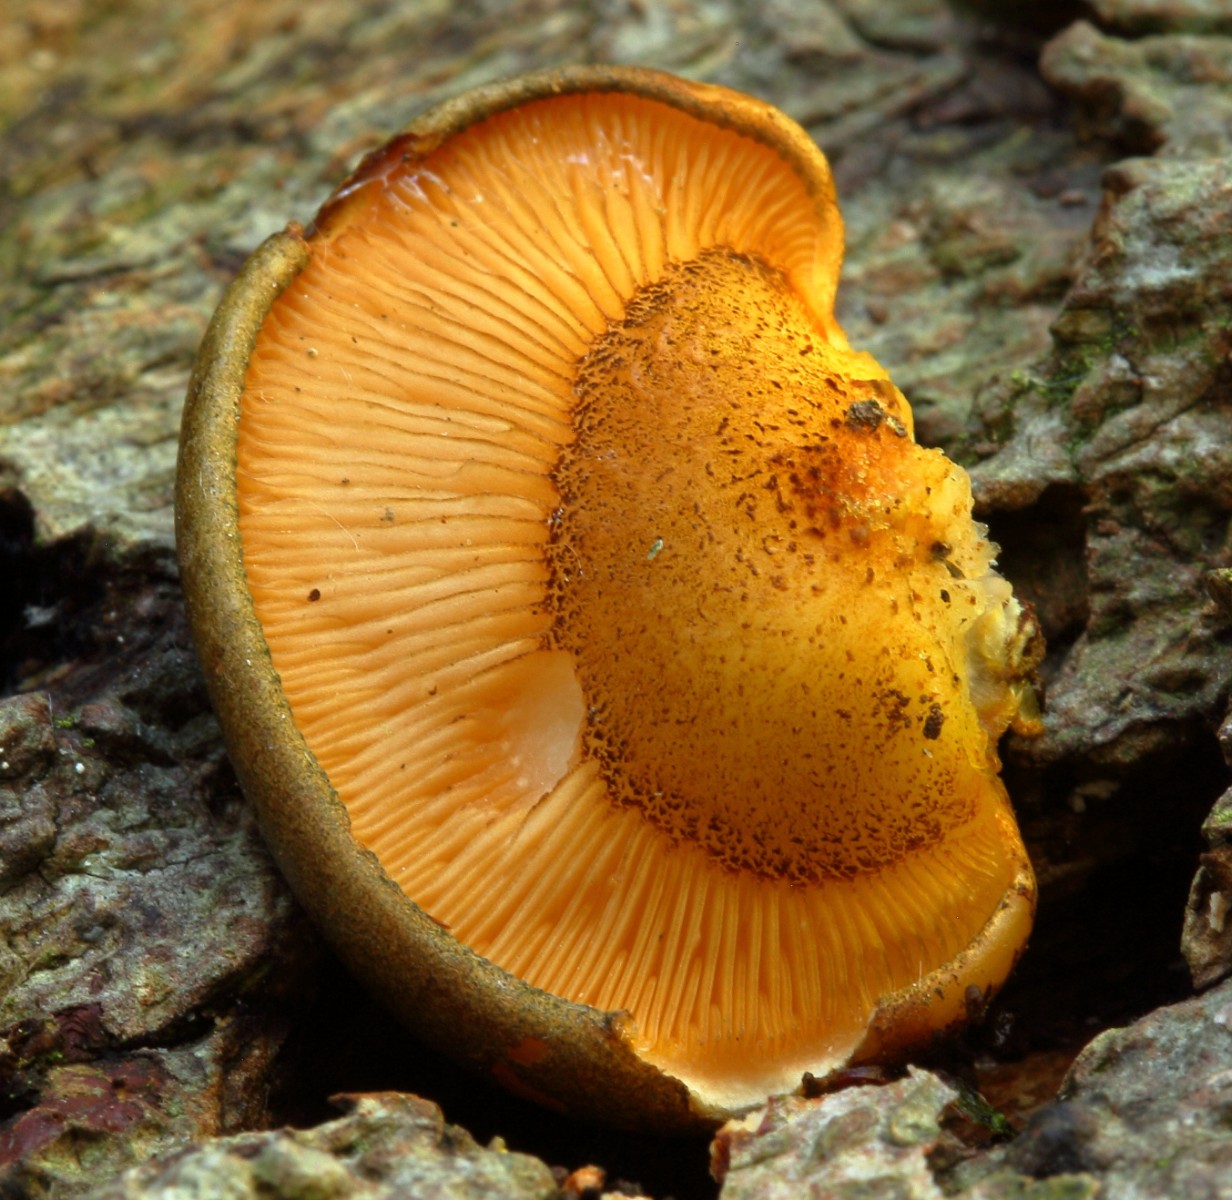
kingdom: Fungi
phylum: Basidiomycota
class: Agaricomycetes
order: Agaricales
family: Sarcomyxaceae
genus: Sarcomyxa
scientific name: Sarcomyxa serotina
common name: gummihat
